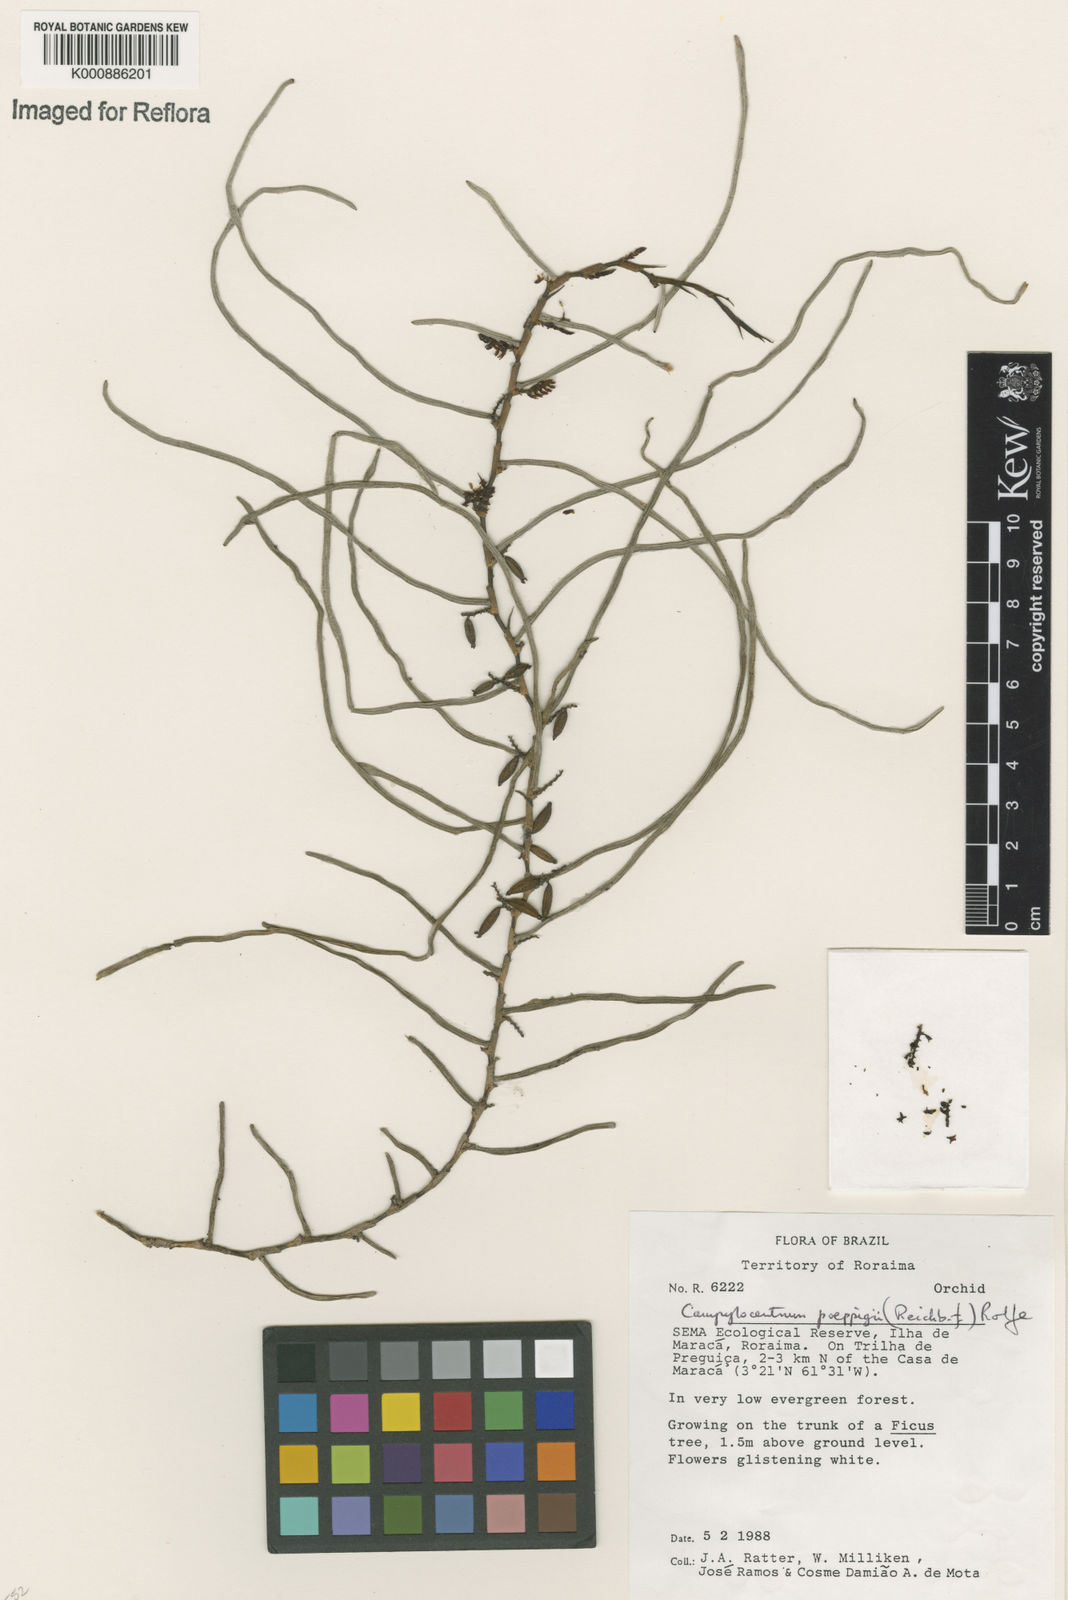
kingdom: Plantae
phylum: Tracheophyta
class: Liliopsida
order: Asparagales
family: Orchidaceae
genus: Campylocentrum
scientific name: Campylocentrum poeppigii
